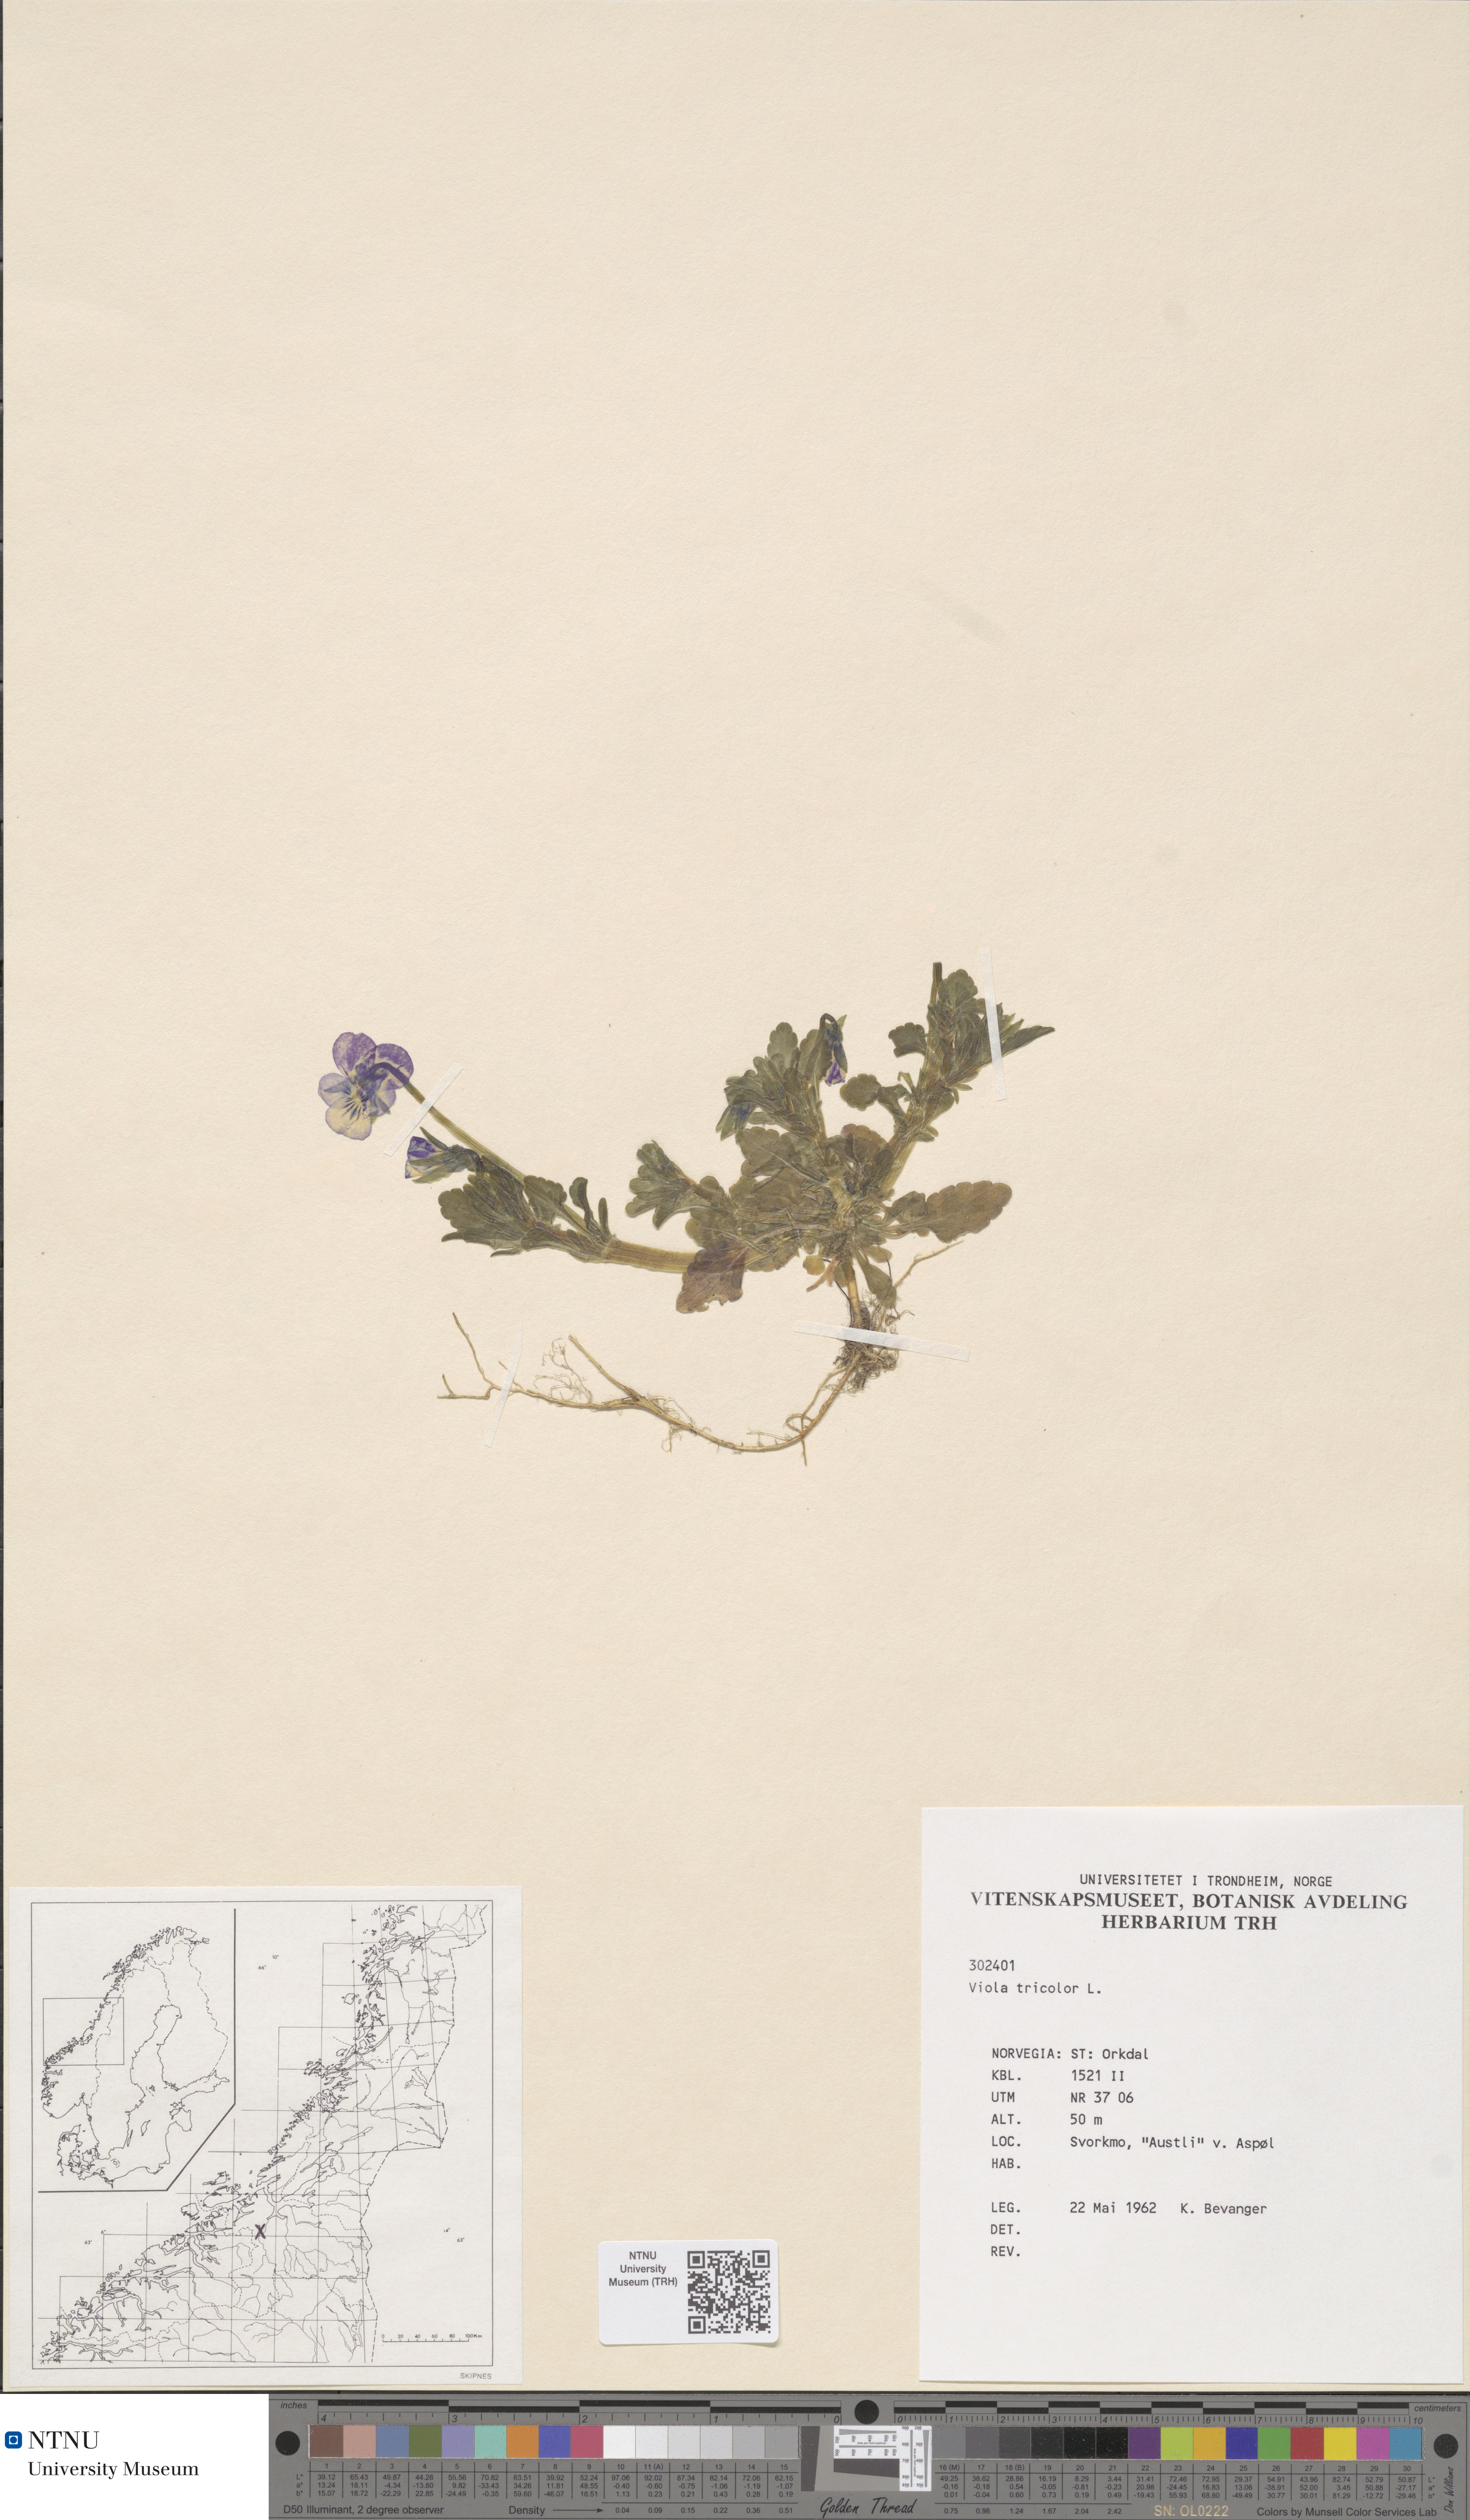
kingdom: Plantae
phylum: Tracheophyta
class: Magnoliopsida
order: Malpighiales
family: Violaceae
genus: Viola
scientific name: Viola tricolor
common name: Pansy
